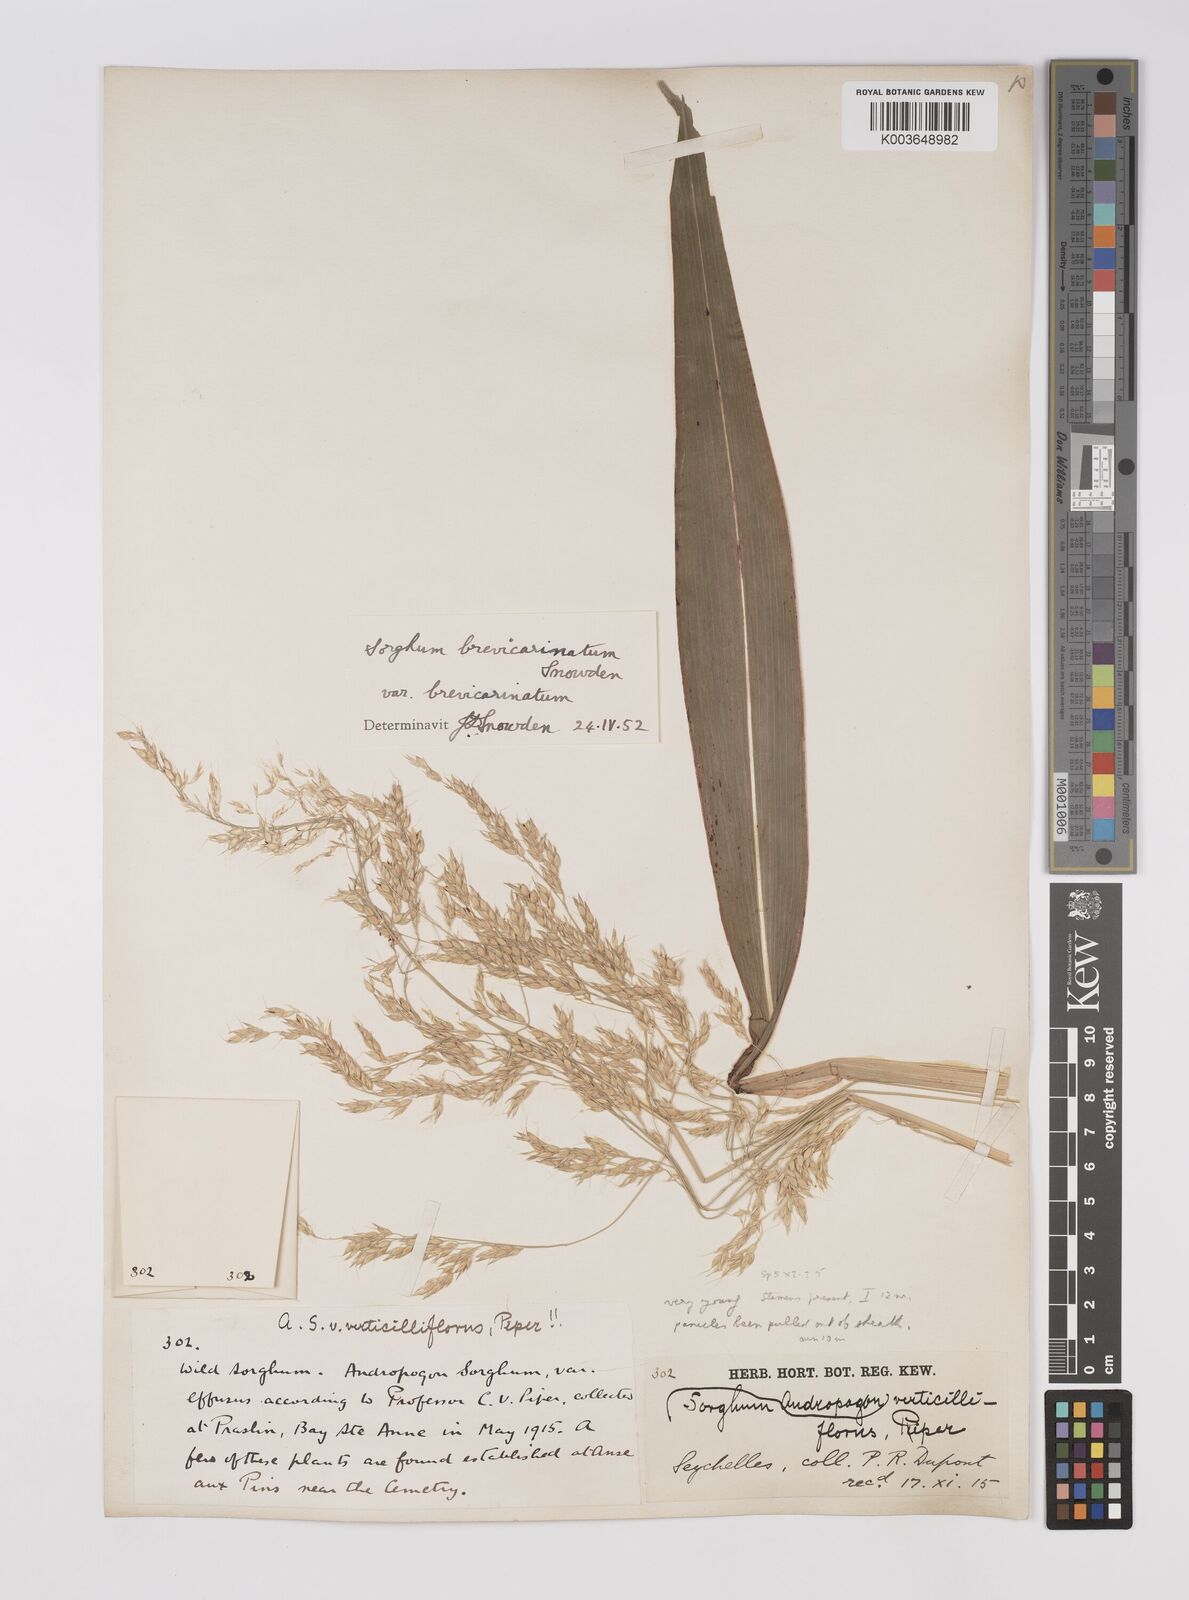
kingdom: Plantae
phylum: Tracheophyta
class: Liliopsida
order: Poales
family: Poaceae
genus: Sorghum
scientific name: Sorghum arundinaceum
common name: Sorghum
